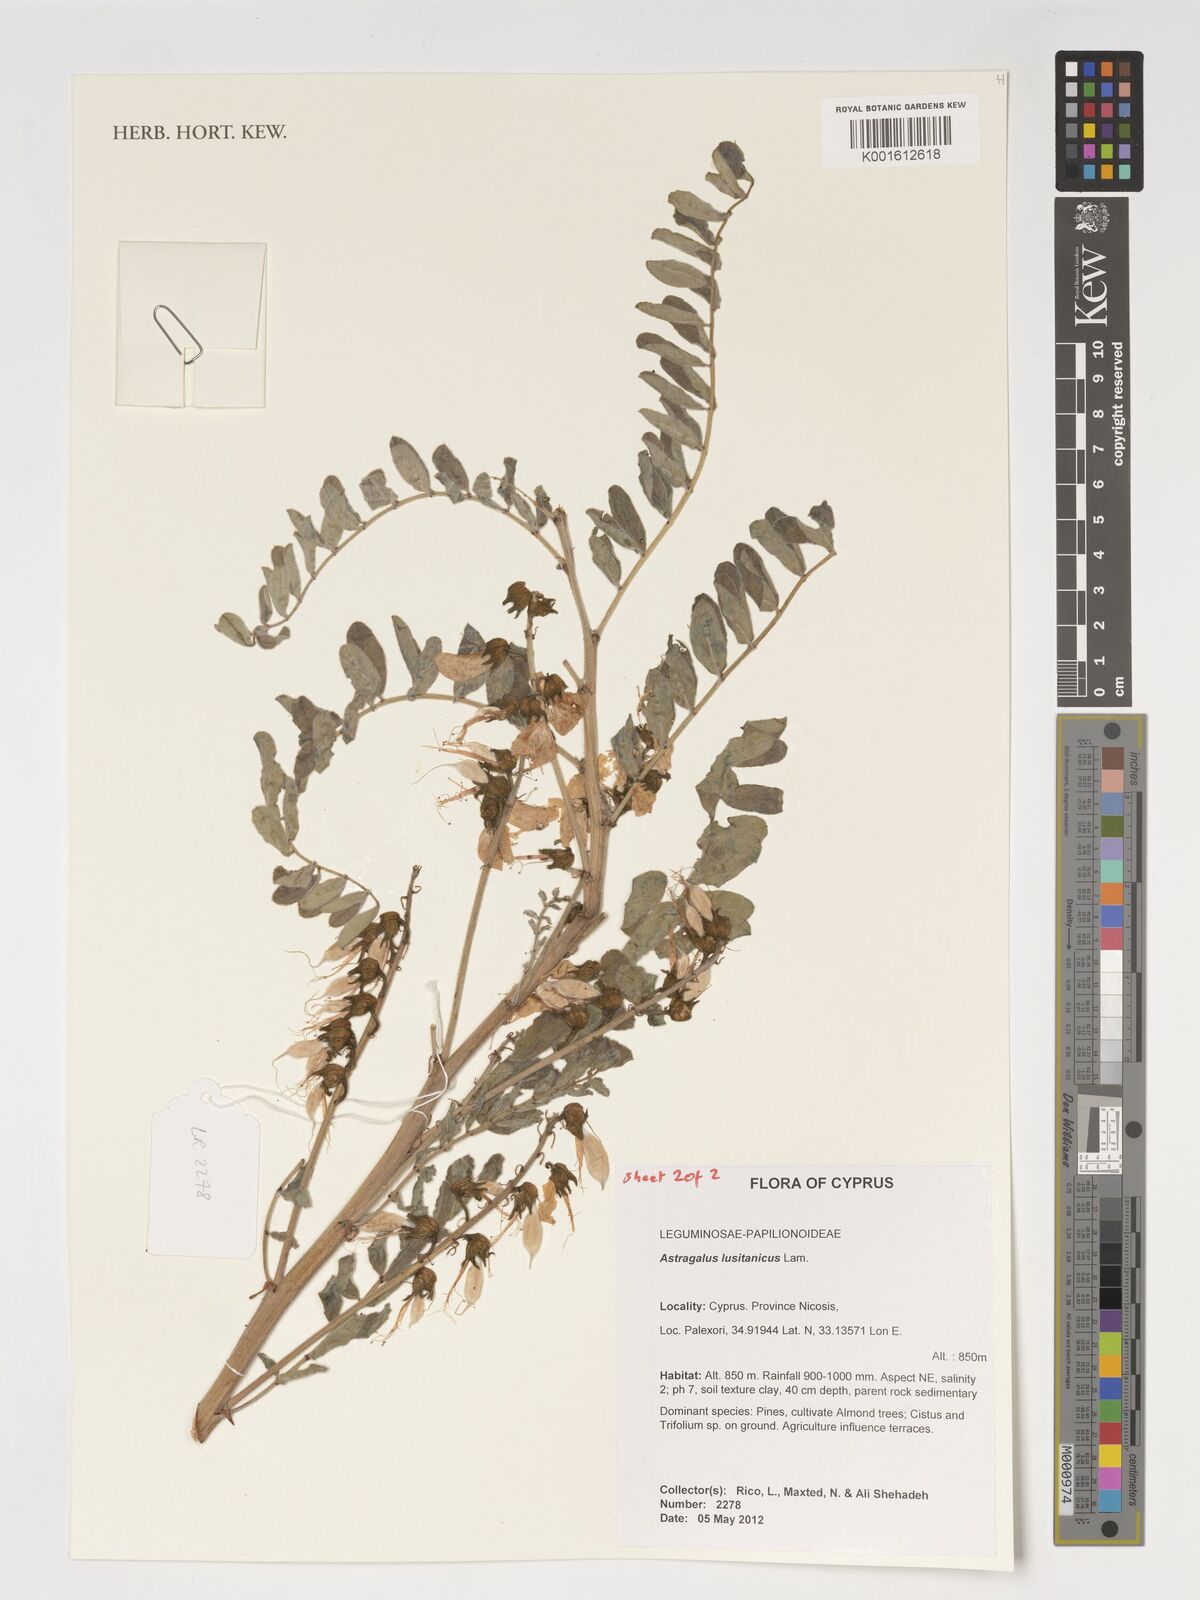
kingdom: Plantae
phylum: Tracheophyta
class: Magnoliopsida
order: Fabales
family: Fabaceae
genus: Erophaca
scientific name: Erophaca baetica
